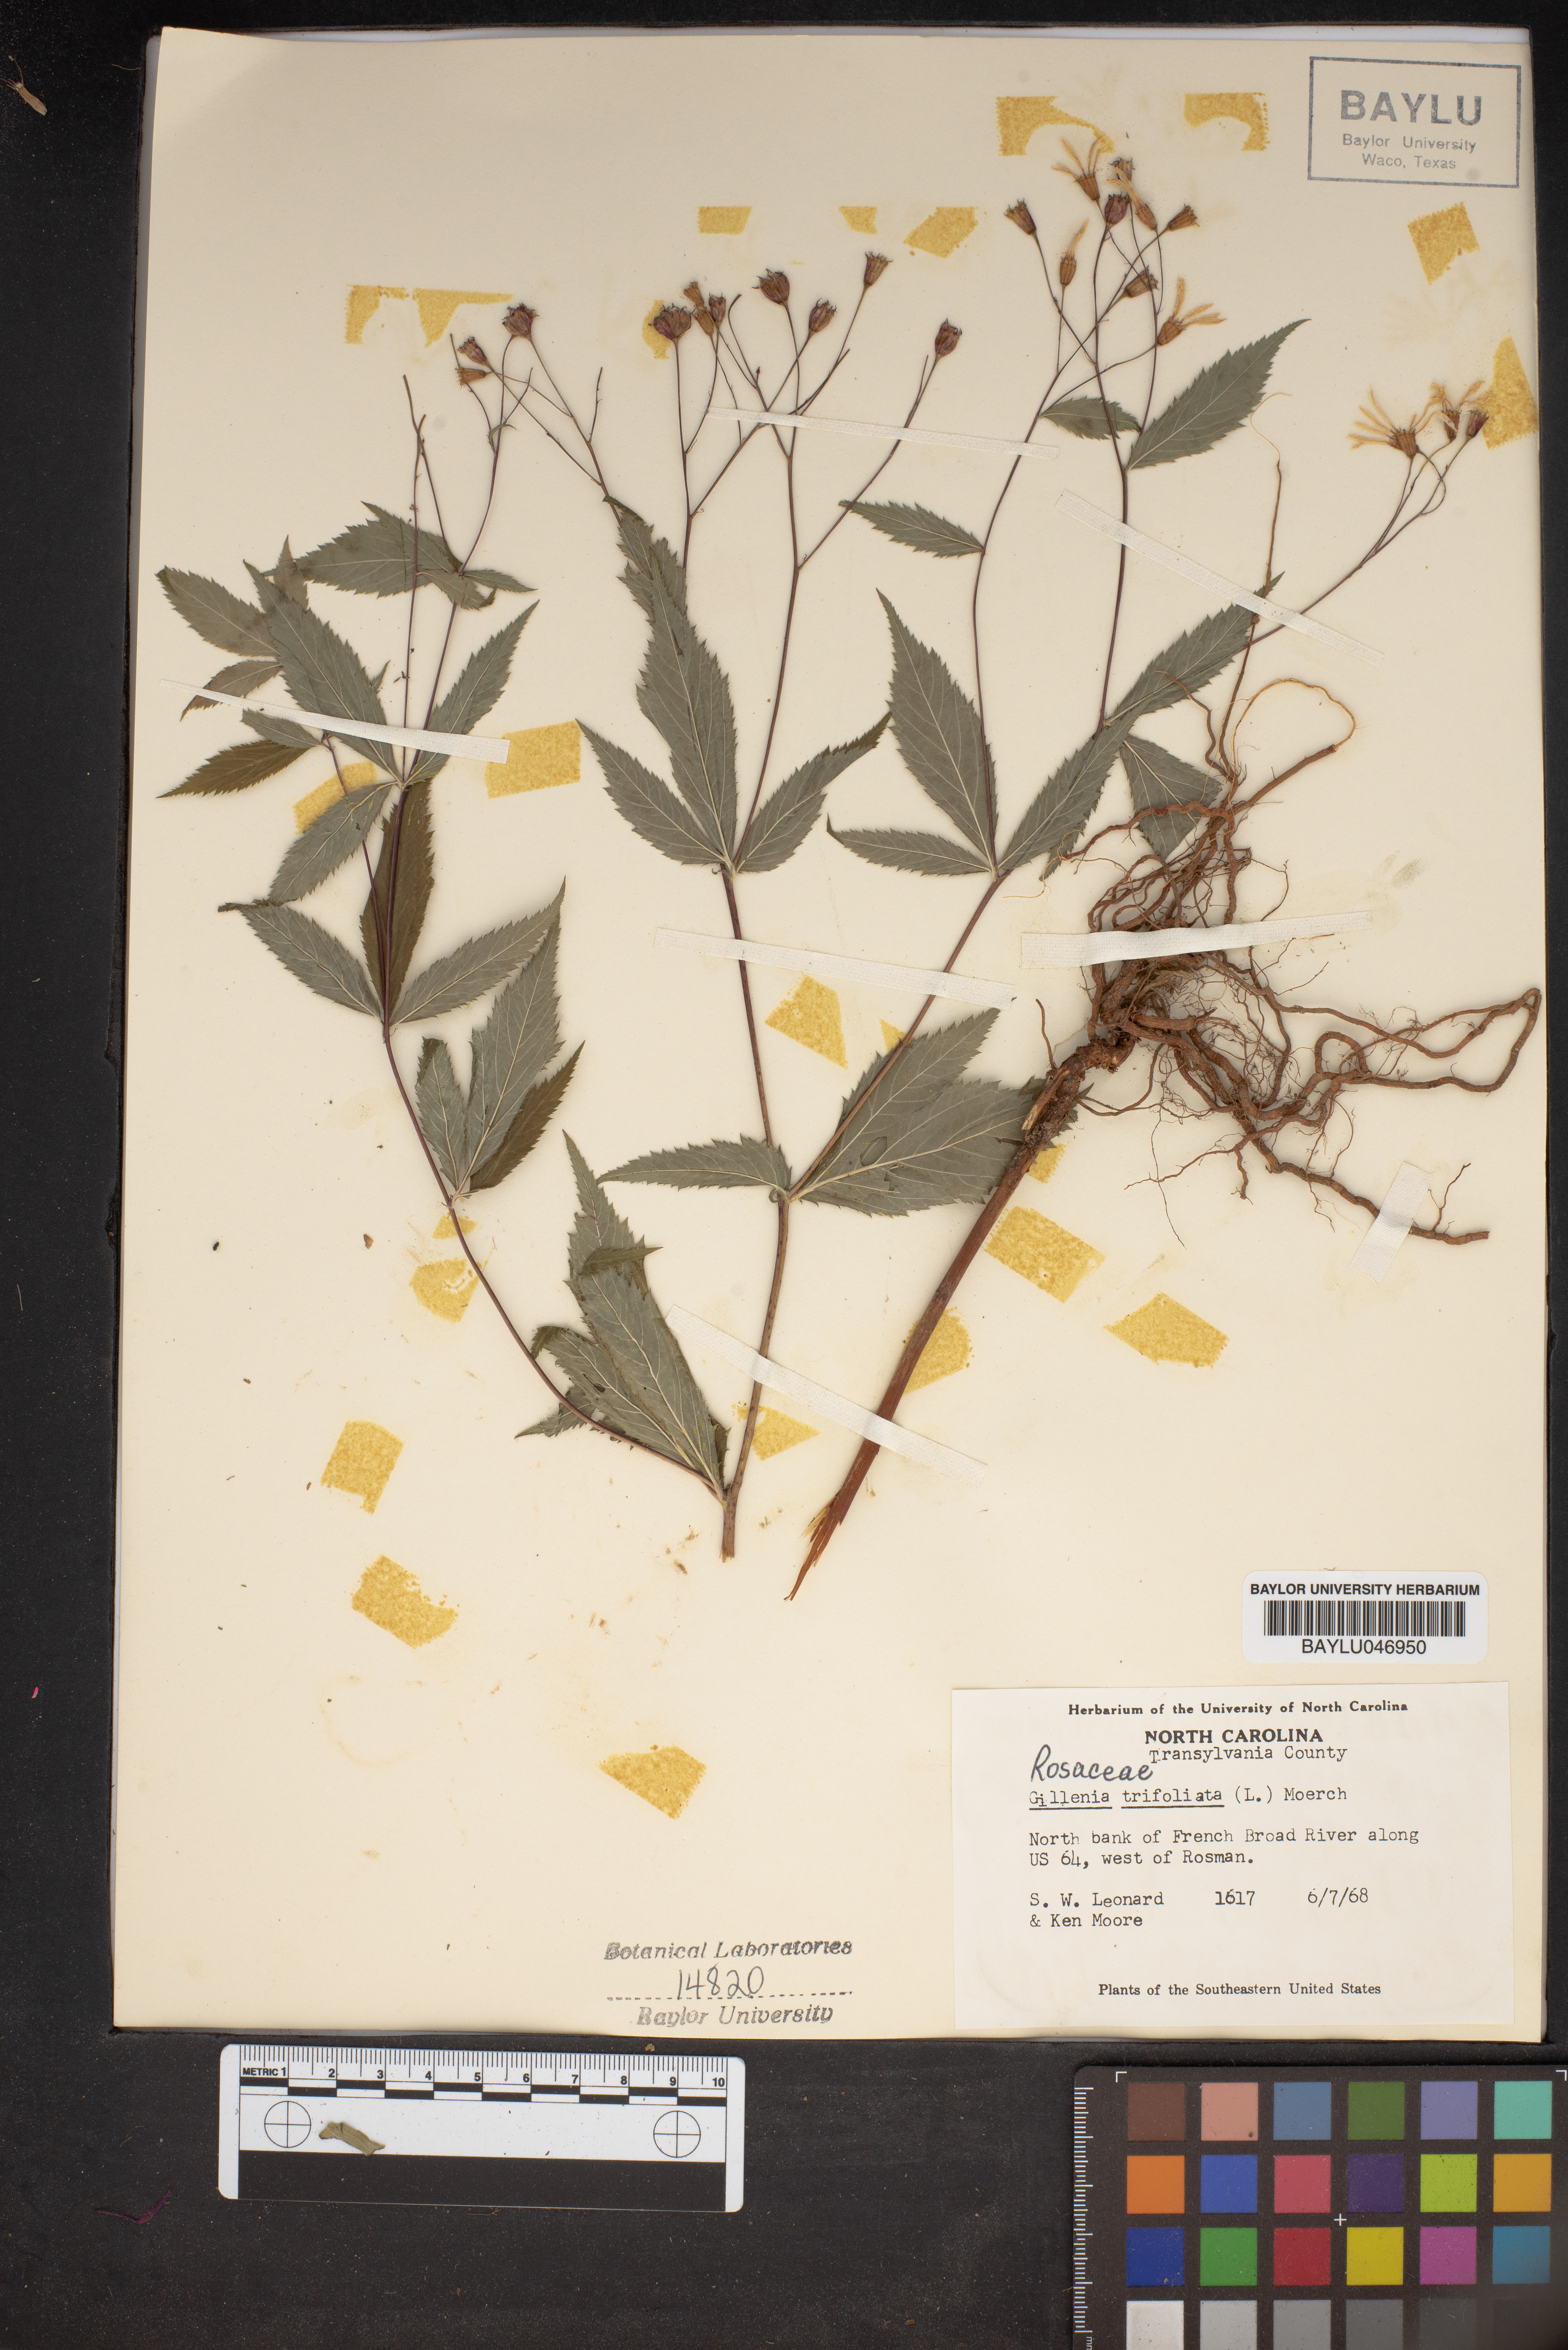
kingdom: Plantae
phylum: Tracheophyta
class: Magnoliopsida
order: Rosales
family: Rosaceae
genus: Gillenia
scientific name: Gillenia trifoliata
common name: Bowman's-root
